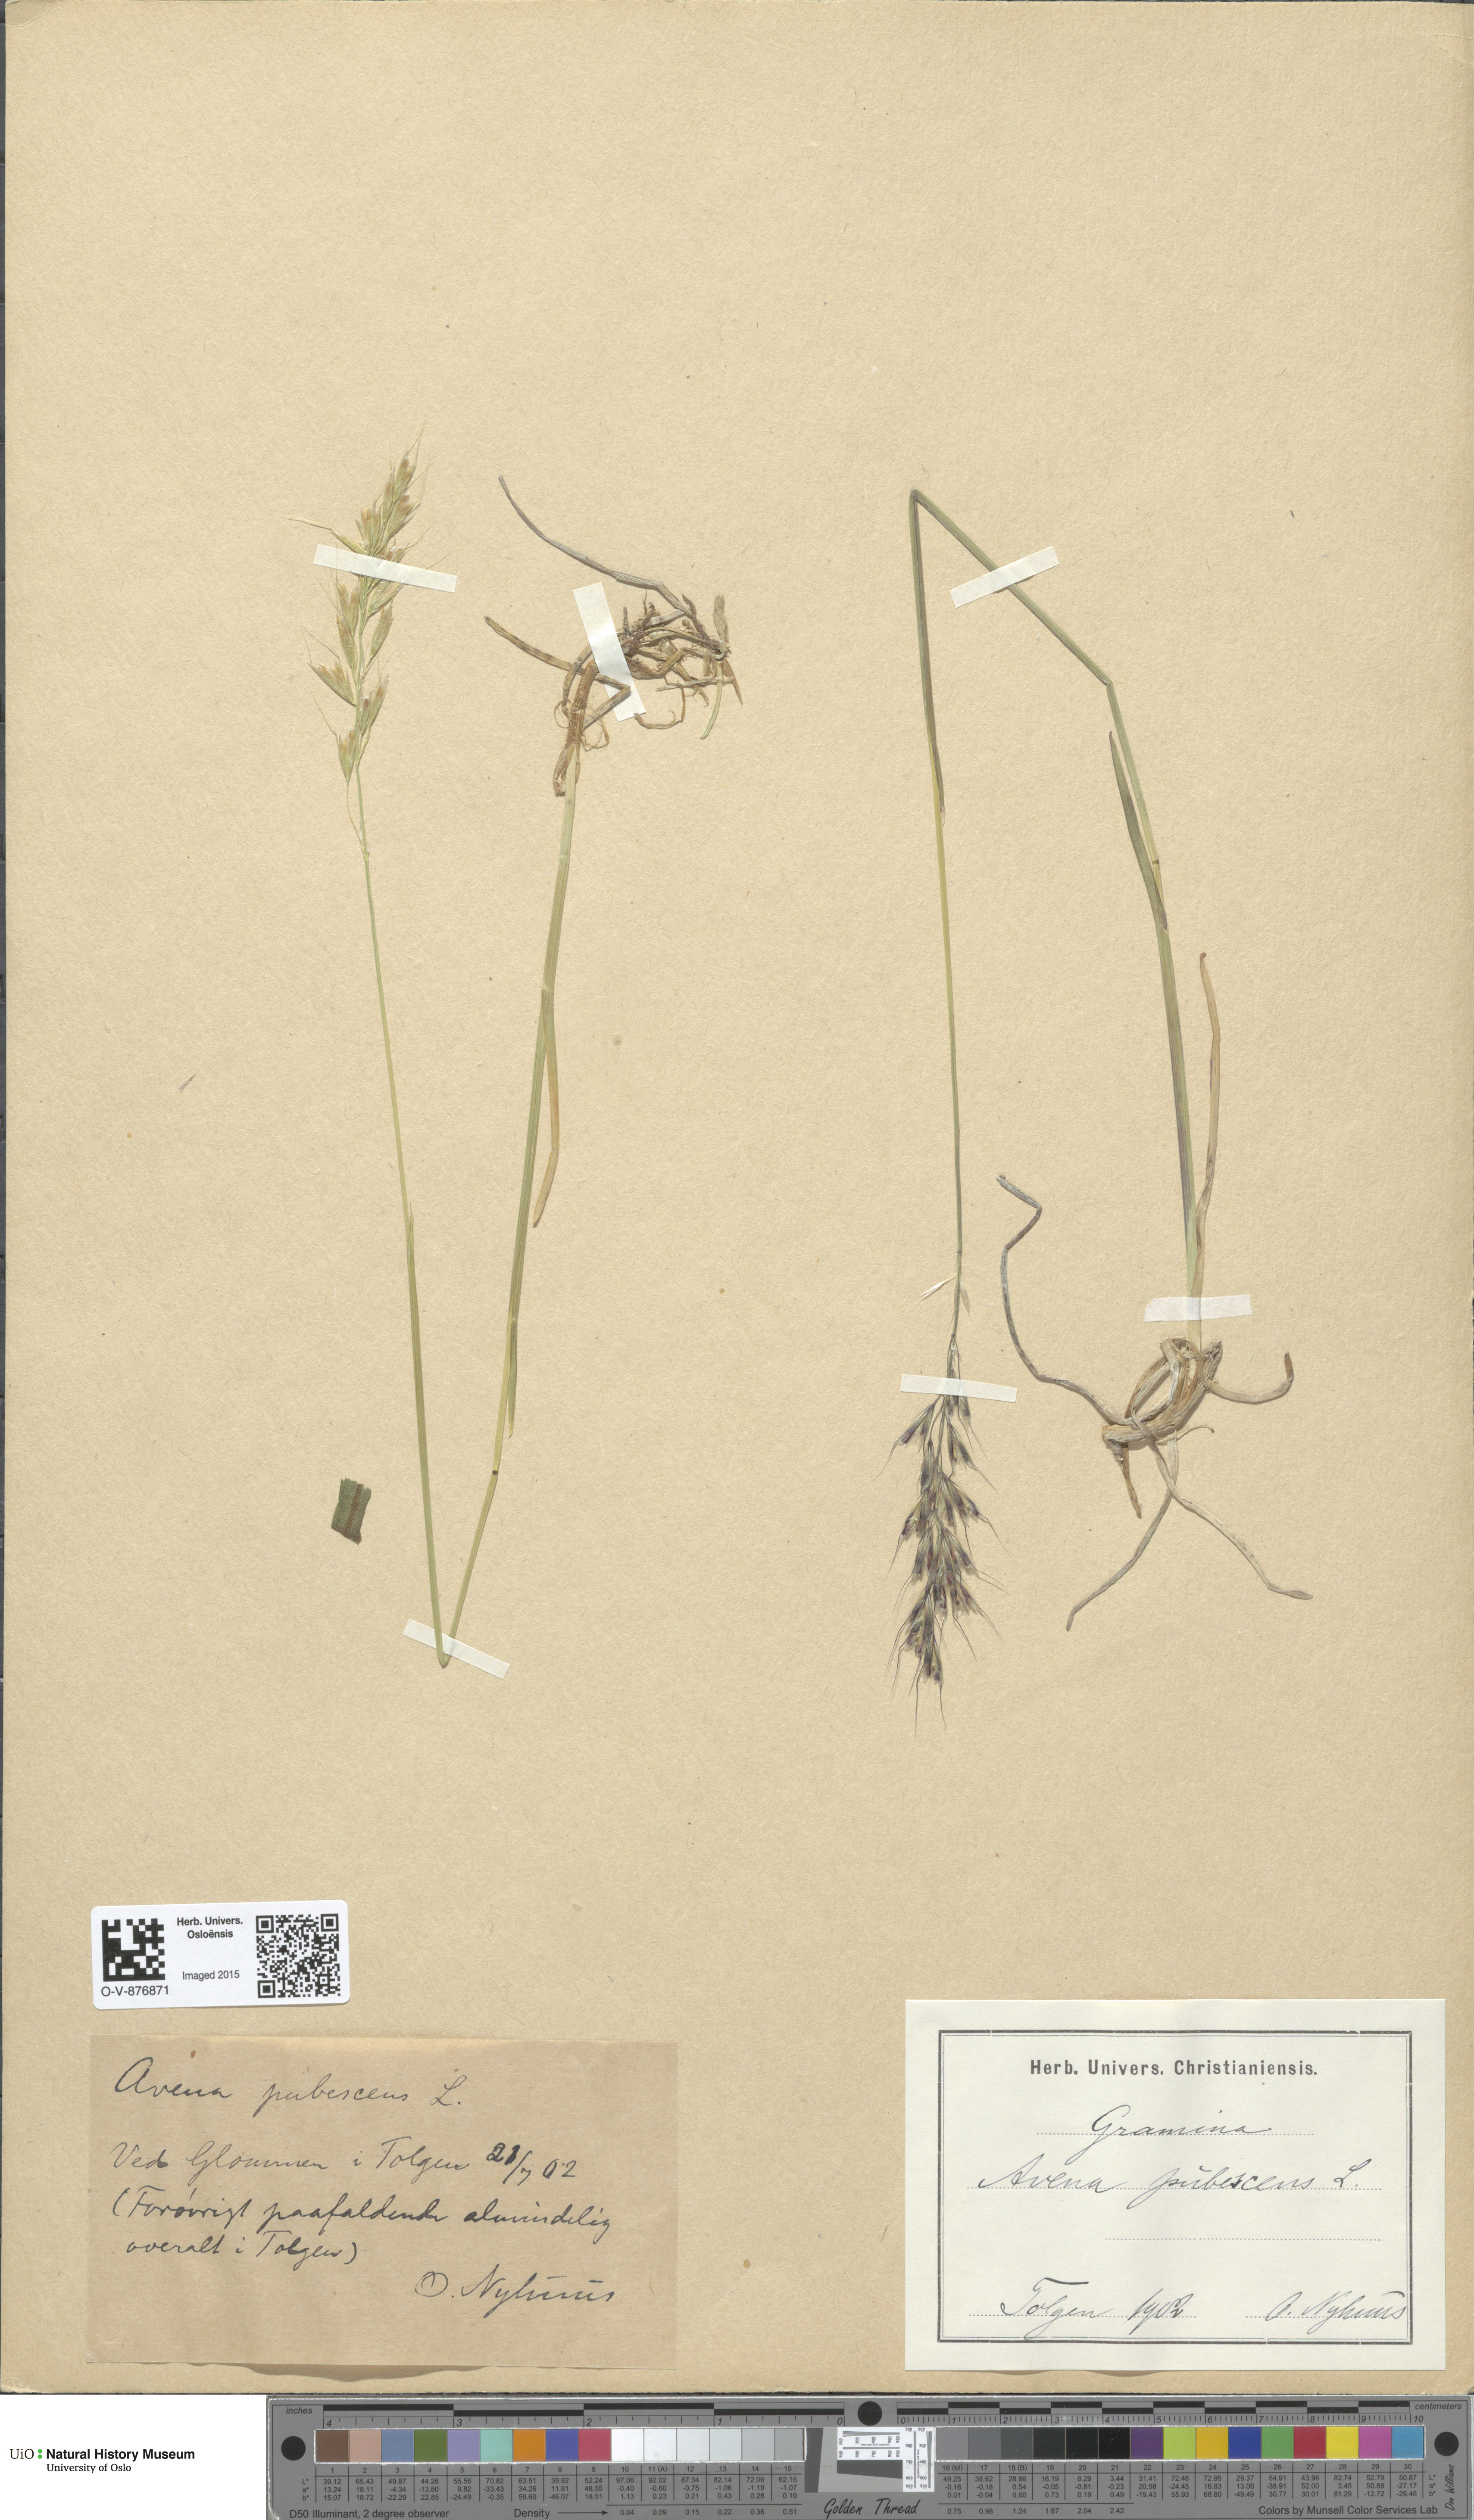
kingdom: Plantae
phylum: Tracheophyta
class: Liliopsida
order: Poales
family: Poaceae
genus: Avenula
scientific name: Avenula pubescens
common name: Downy alpine oatgrass
